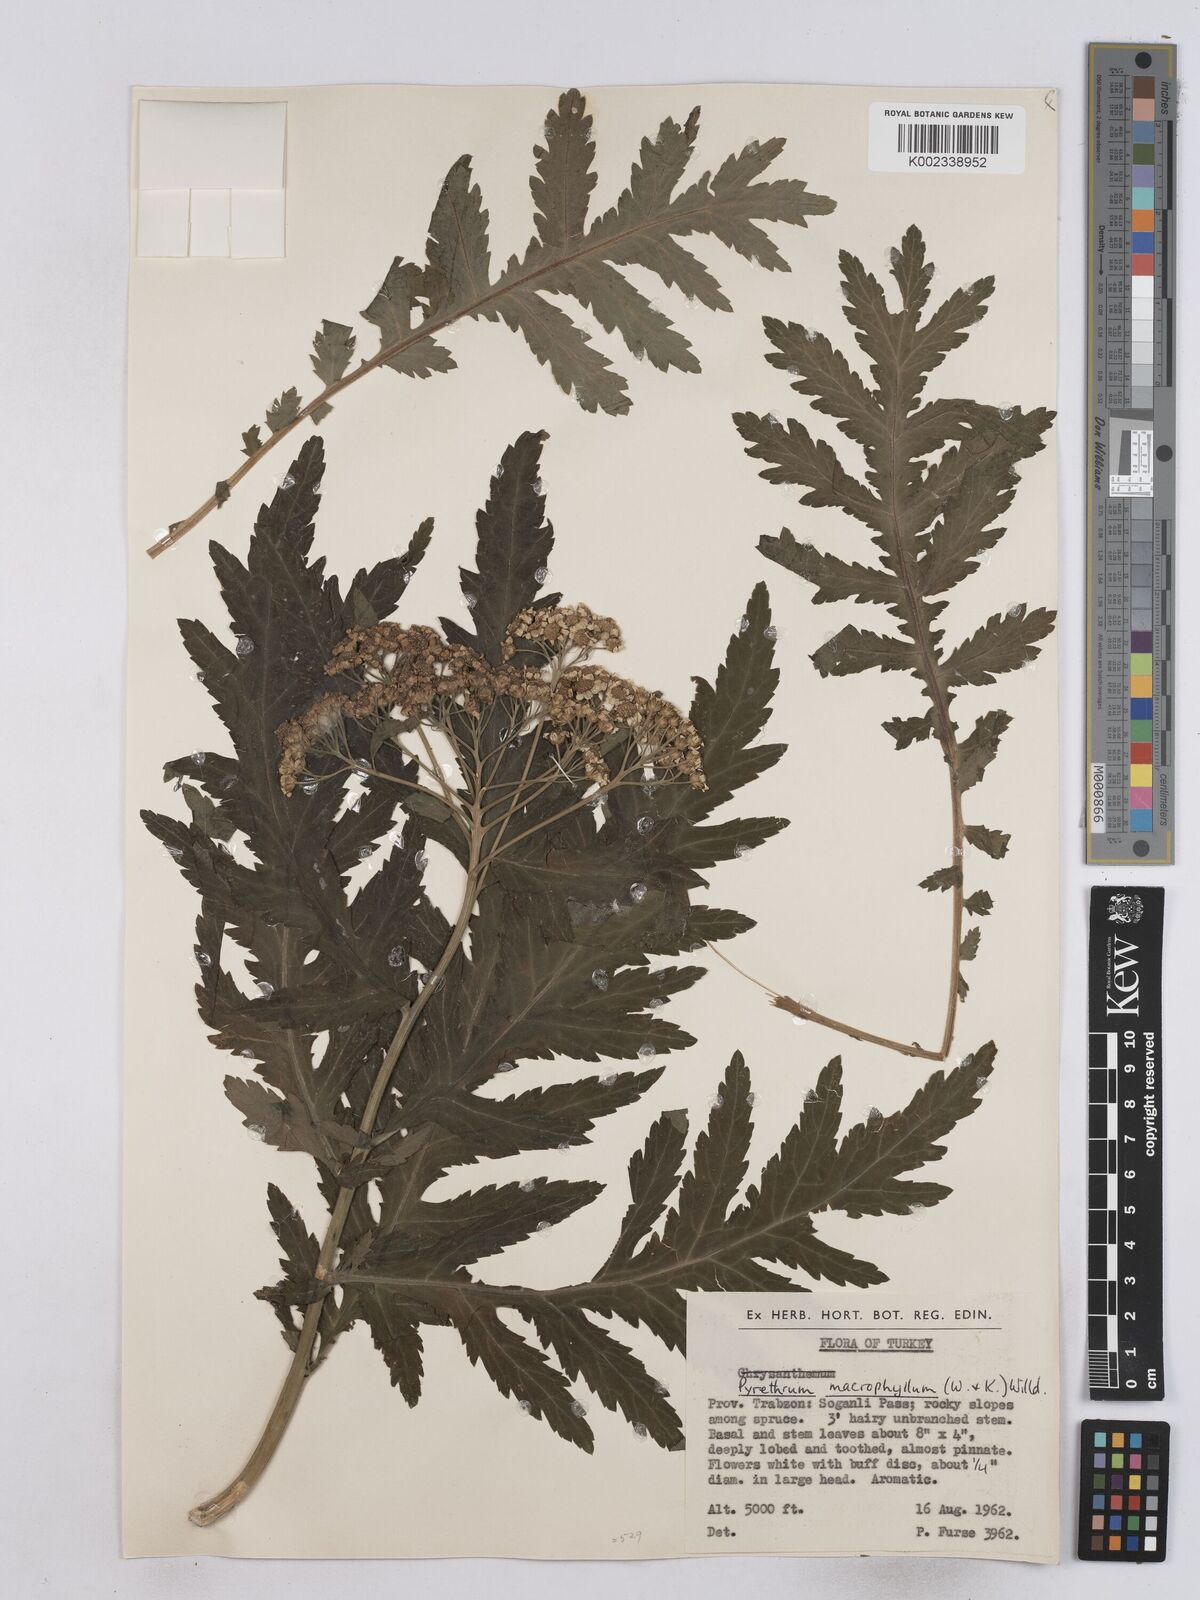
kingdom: Plantae
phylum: Tracheophyta
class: Magnoliopsida
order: Asterales
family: Asteraceae
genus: Tanacetum
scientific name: Tanacetum macrophyllum
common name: Rayed tansy
